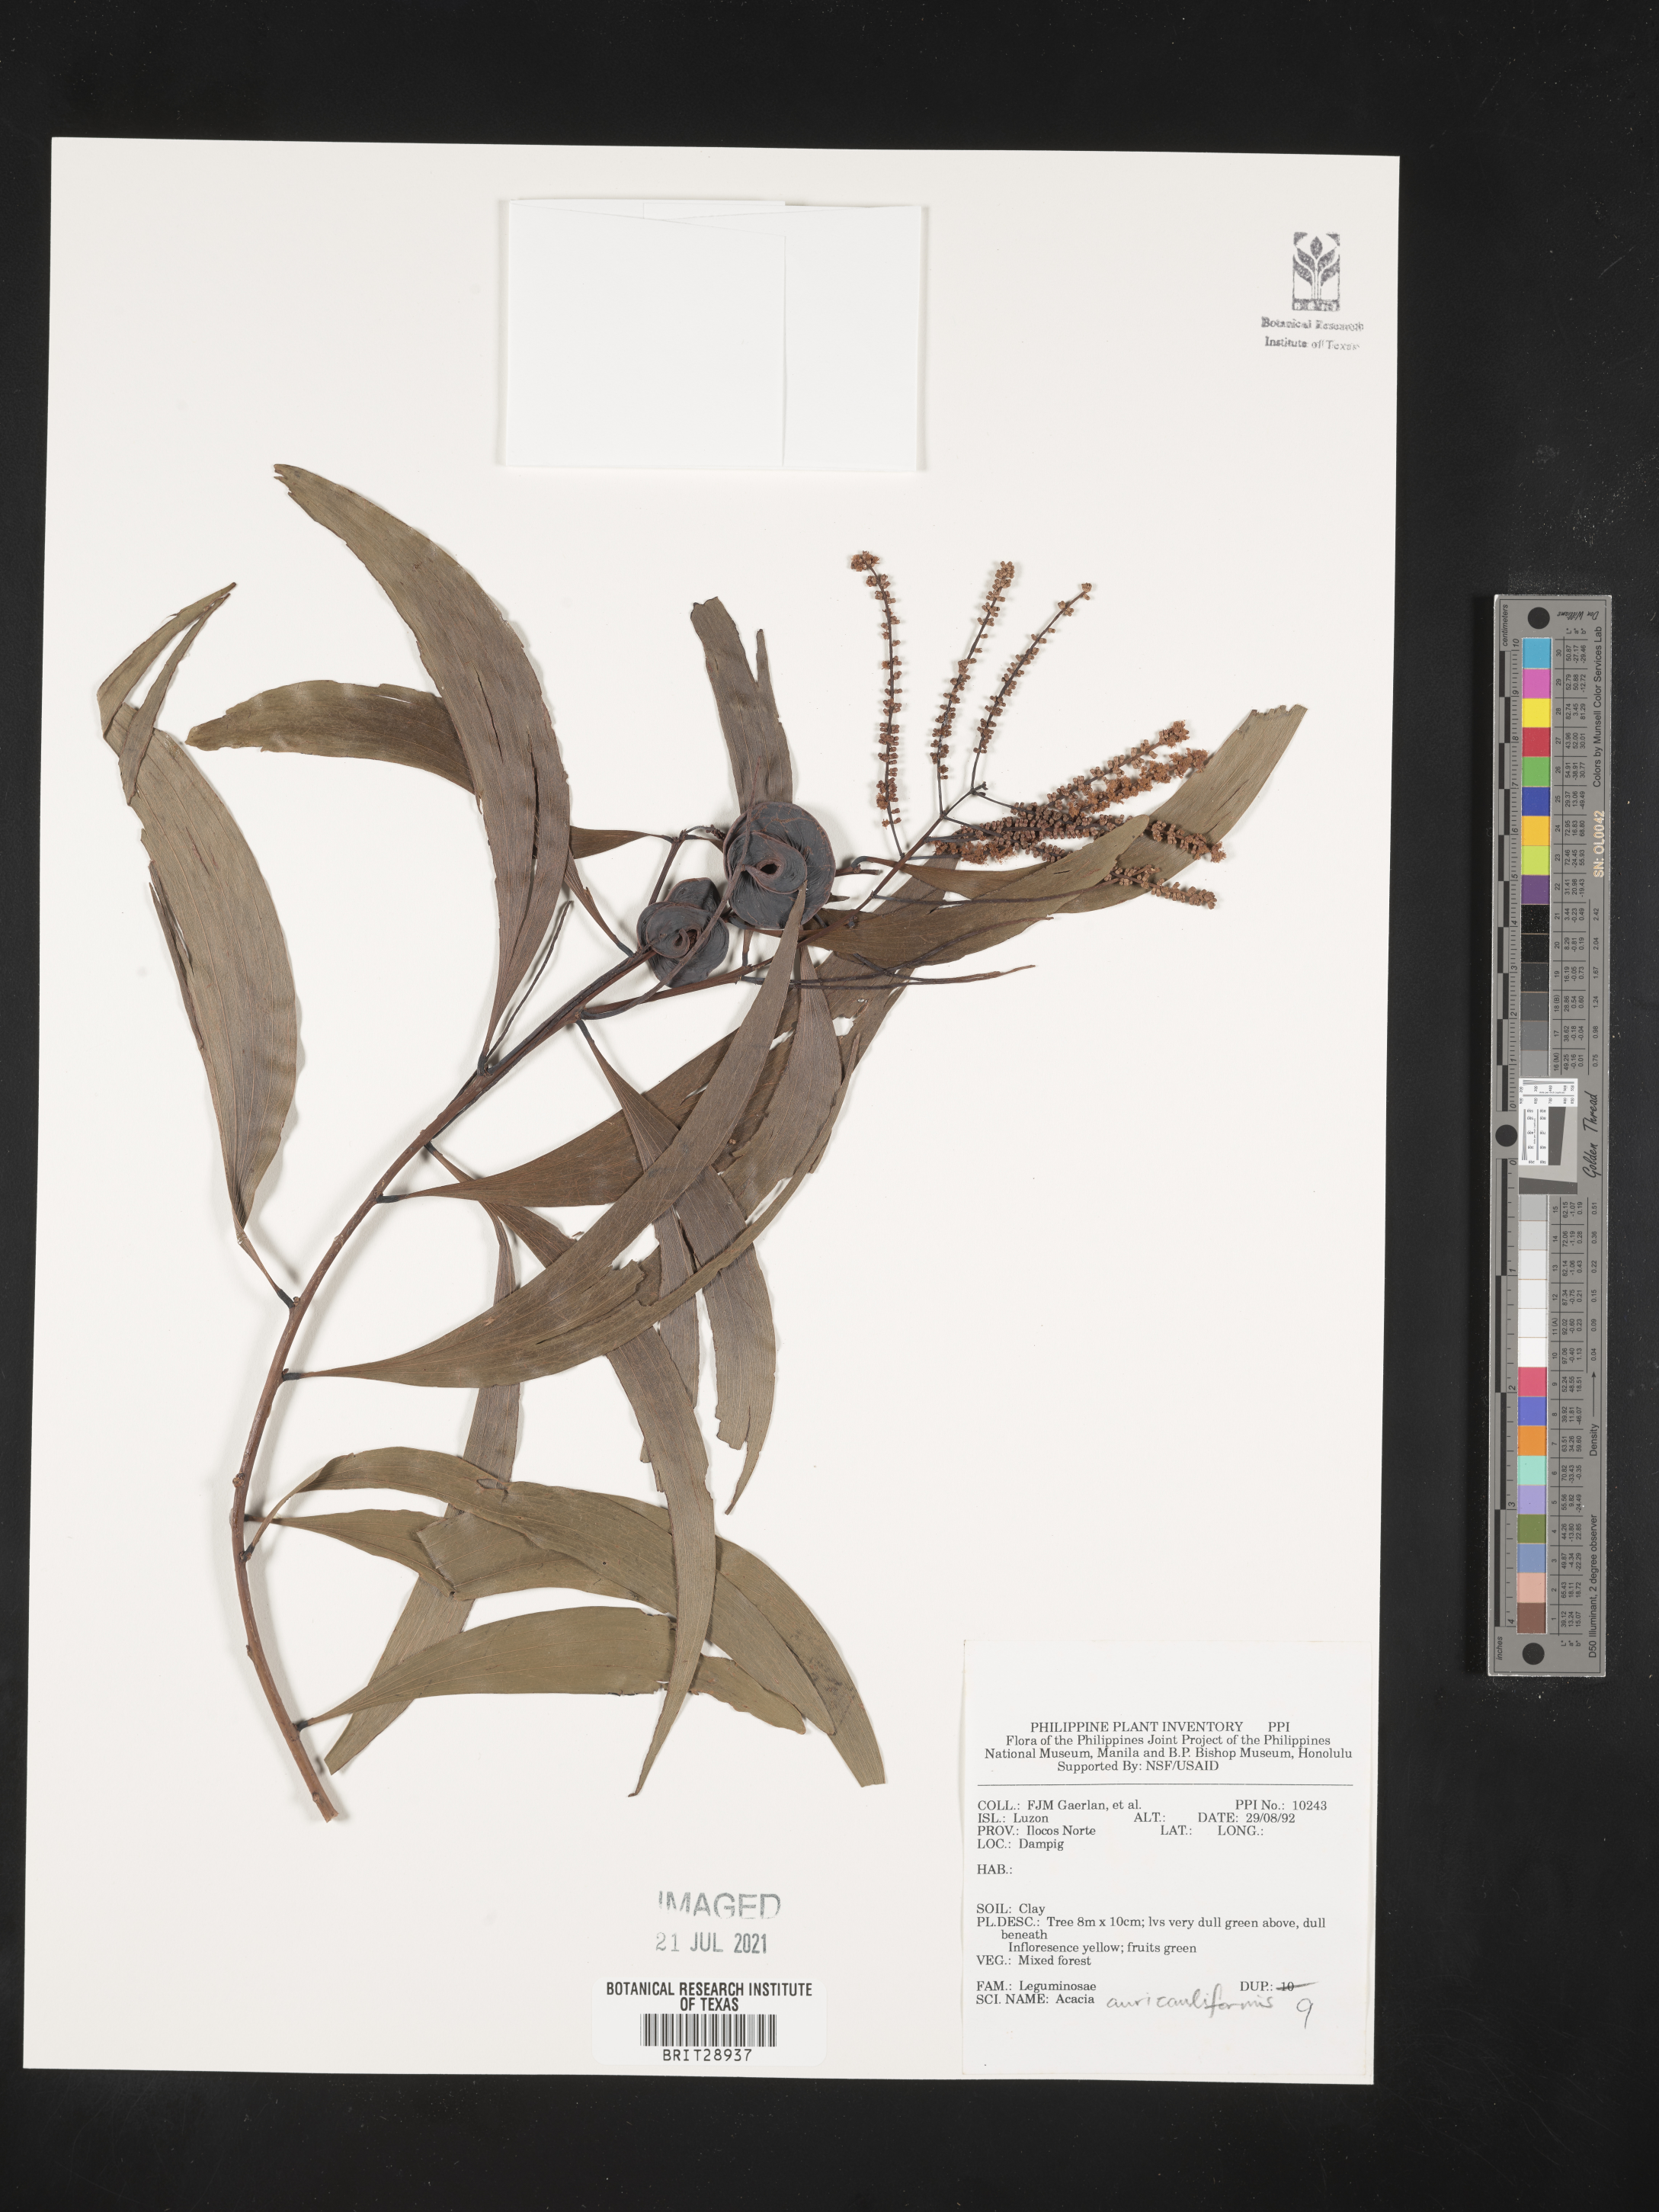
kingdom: Plantae
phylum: Tracheophyta
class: Magnoliopsida
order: Fabales
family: Fabaceae
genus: Acacia
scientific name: Acacia auriculiformis
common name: Earleaf acacia
